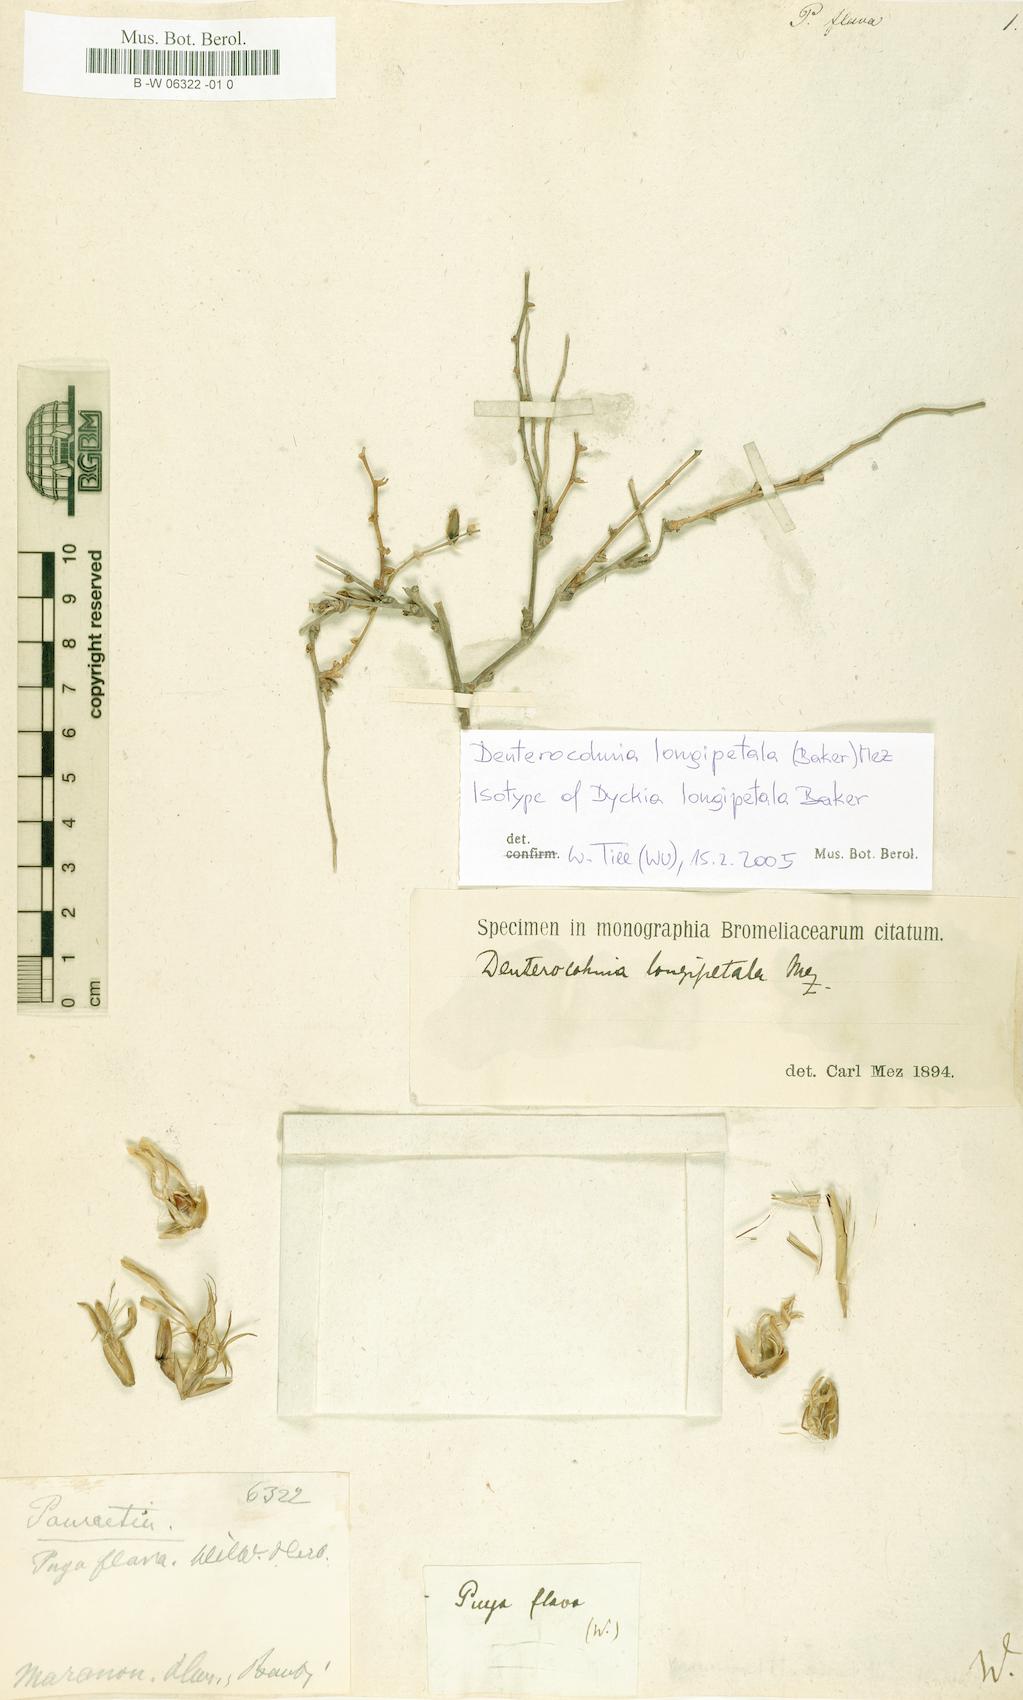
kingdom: Plantae
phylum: Tracheophyta
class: Liliopsida
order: Poales
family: Bromeliaceae
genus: Pitcairnia
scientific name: Pitcairnia flammea
